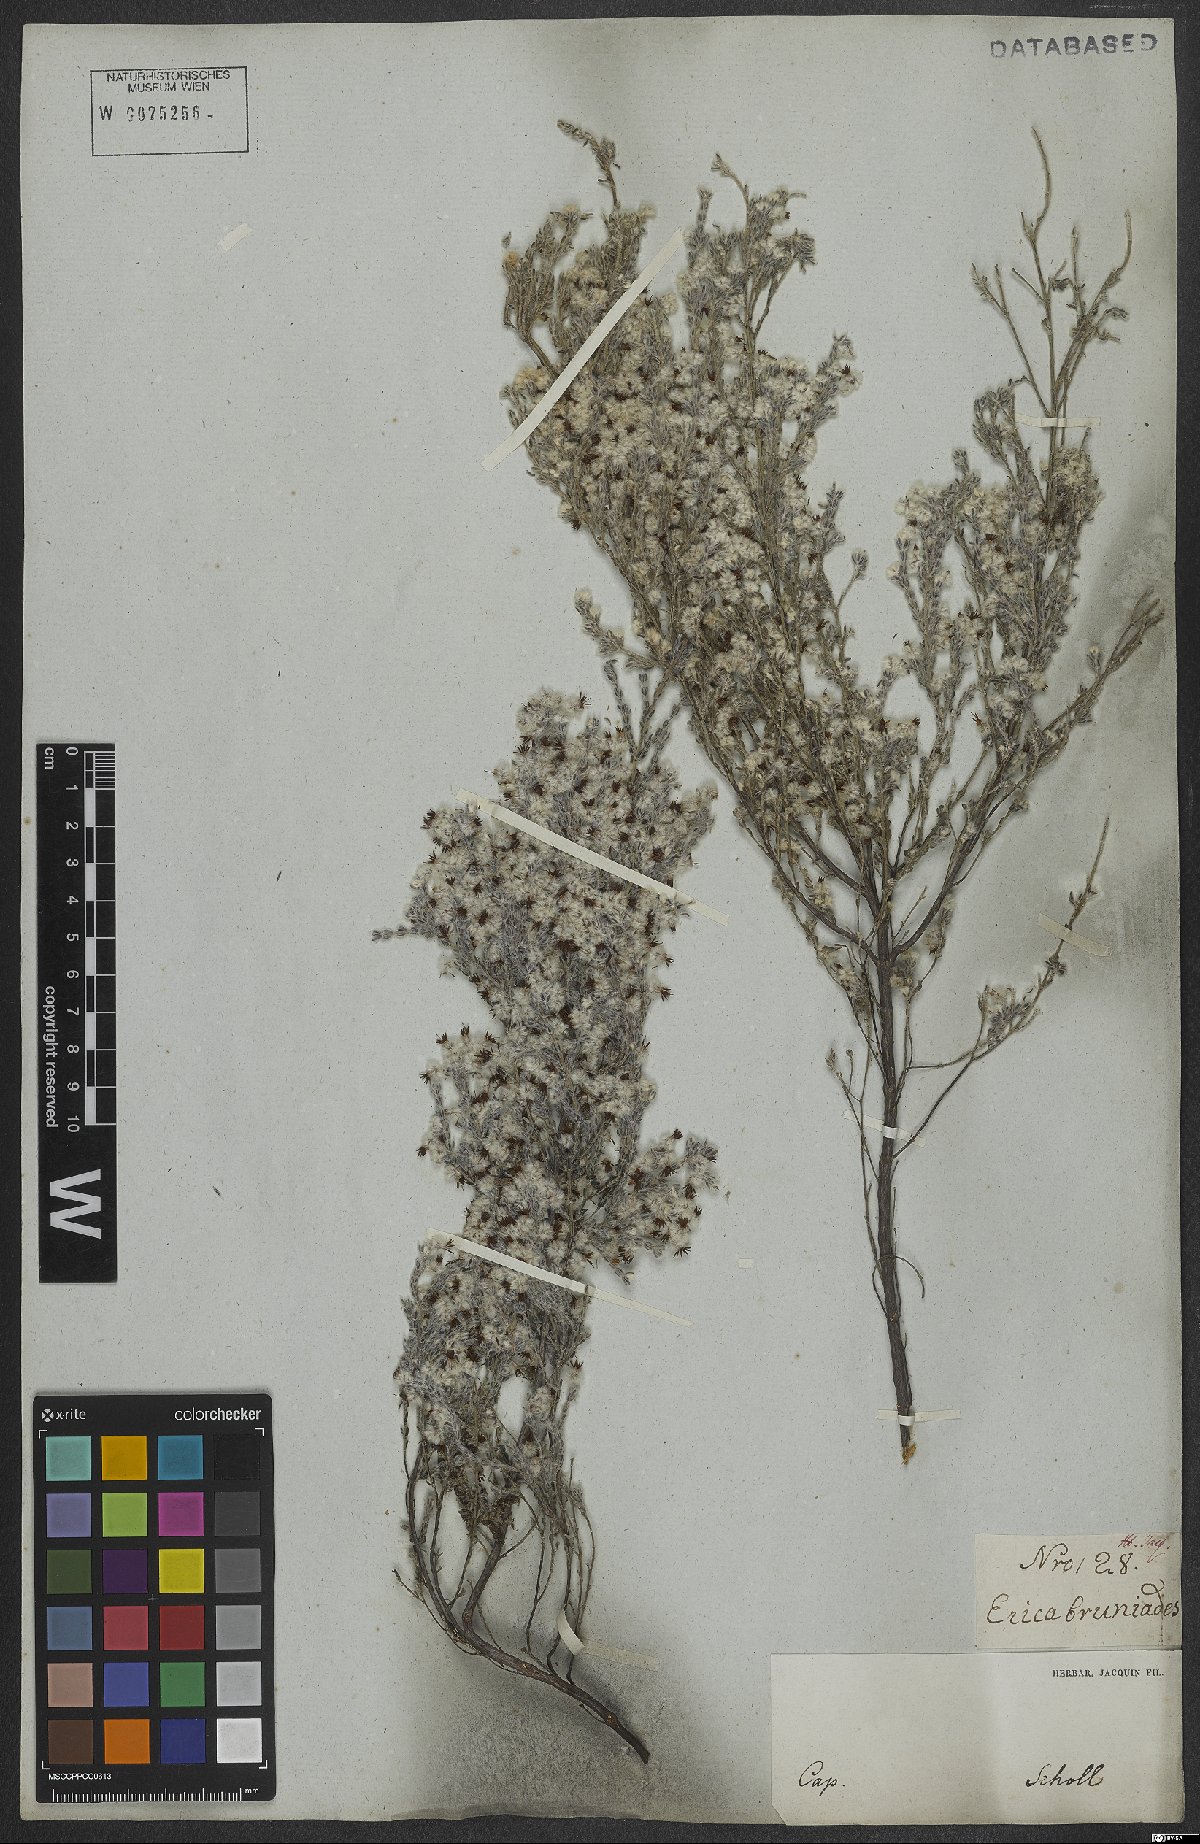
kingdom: Plantae
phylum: Tracheophyta
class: Magnoliopsida
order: Ericales
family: Ericaceae
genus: Erica
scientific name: Erica bruniades
